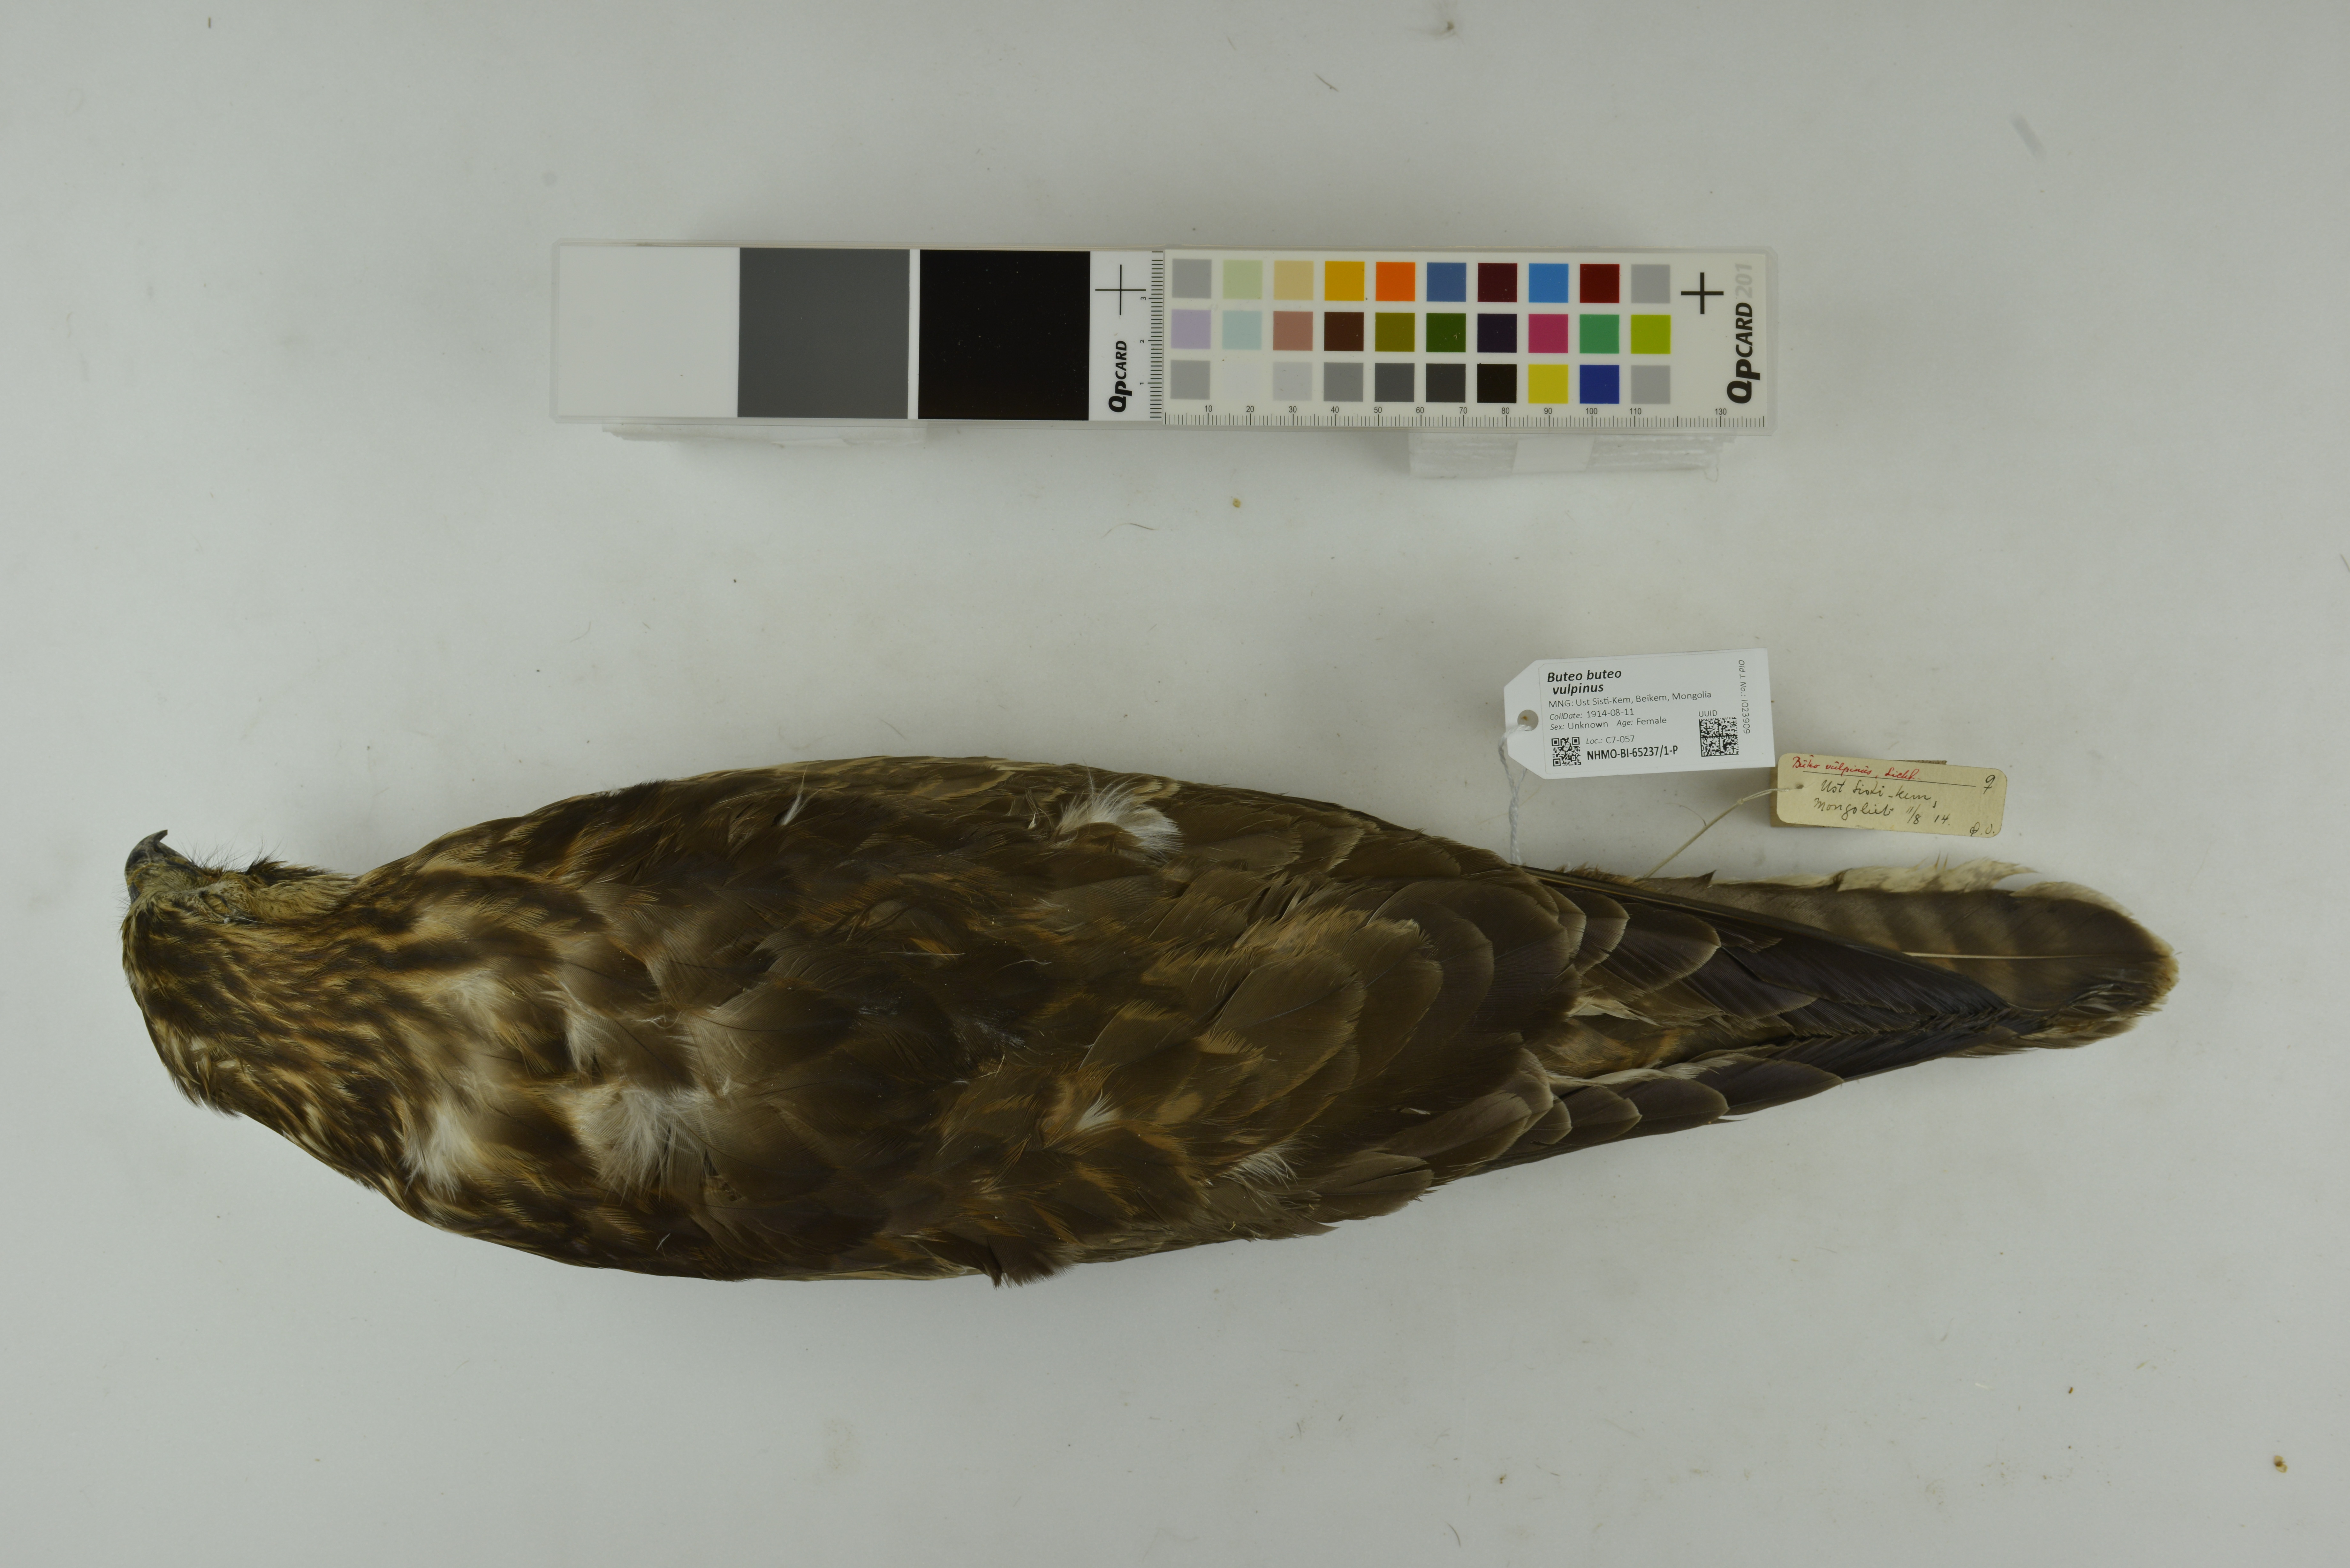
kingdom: Animalia
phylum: Chordata
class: Aves
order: Accipitriformes
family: Accipitridae
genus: Buteo
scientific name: Buteo buteo
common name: Common buzzard
